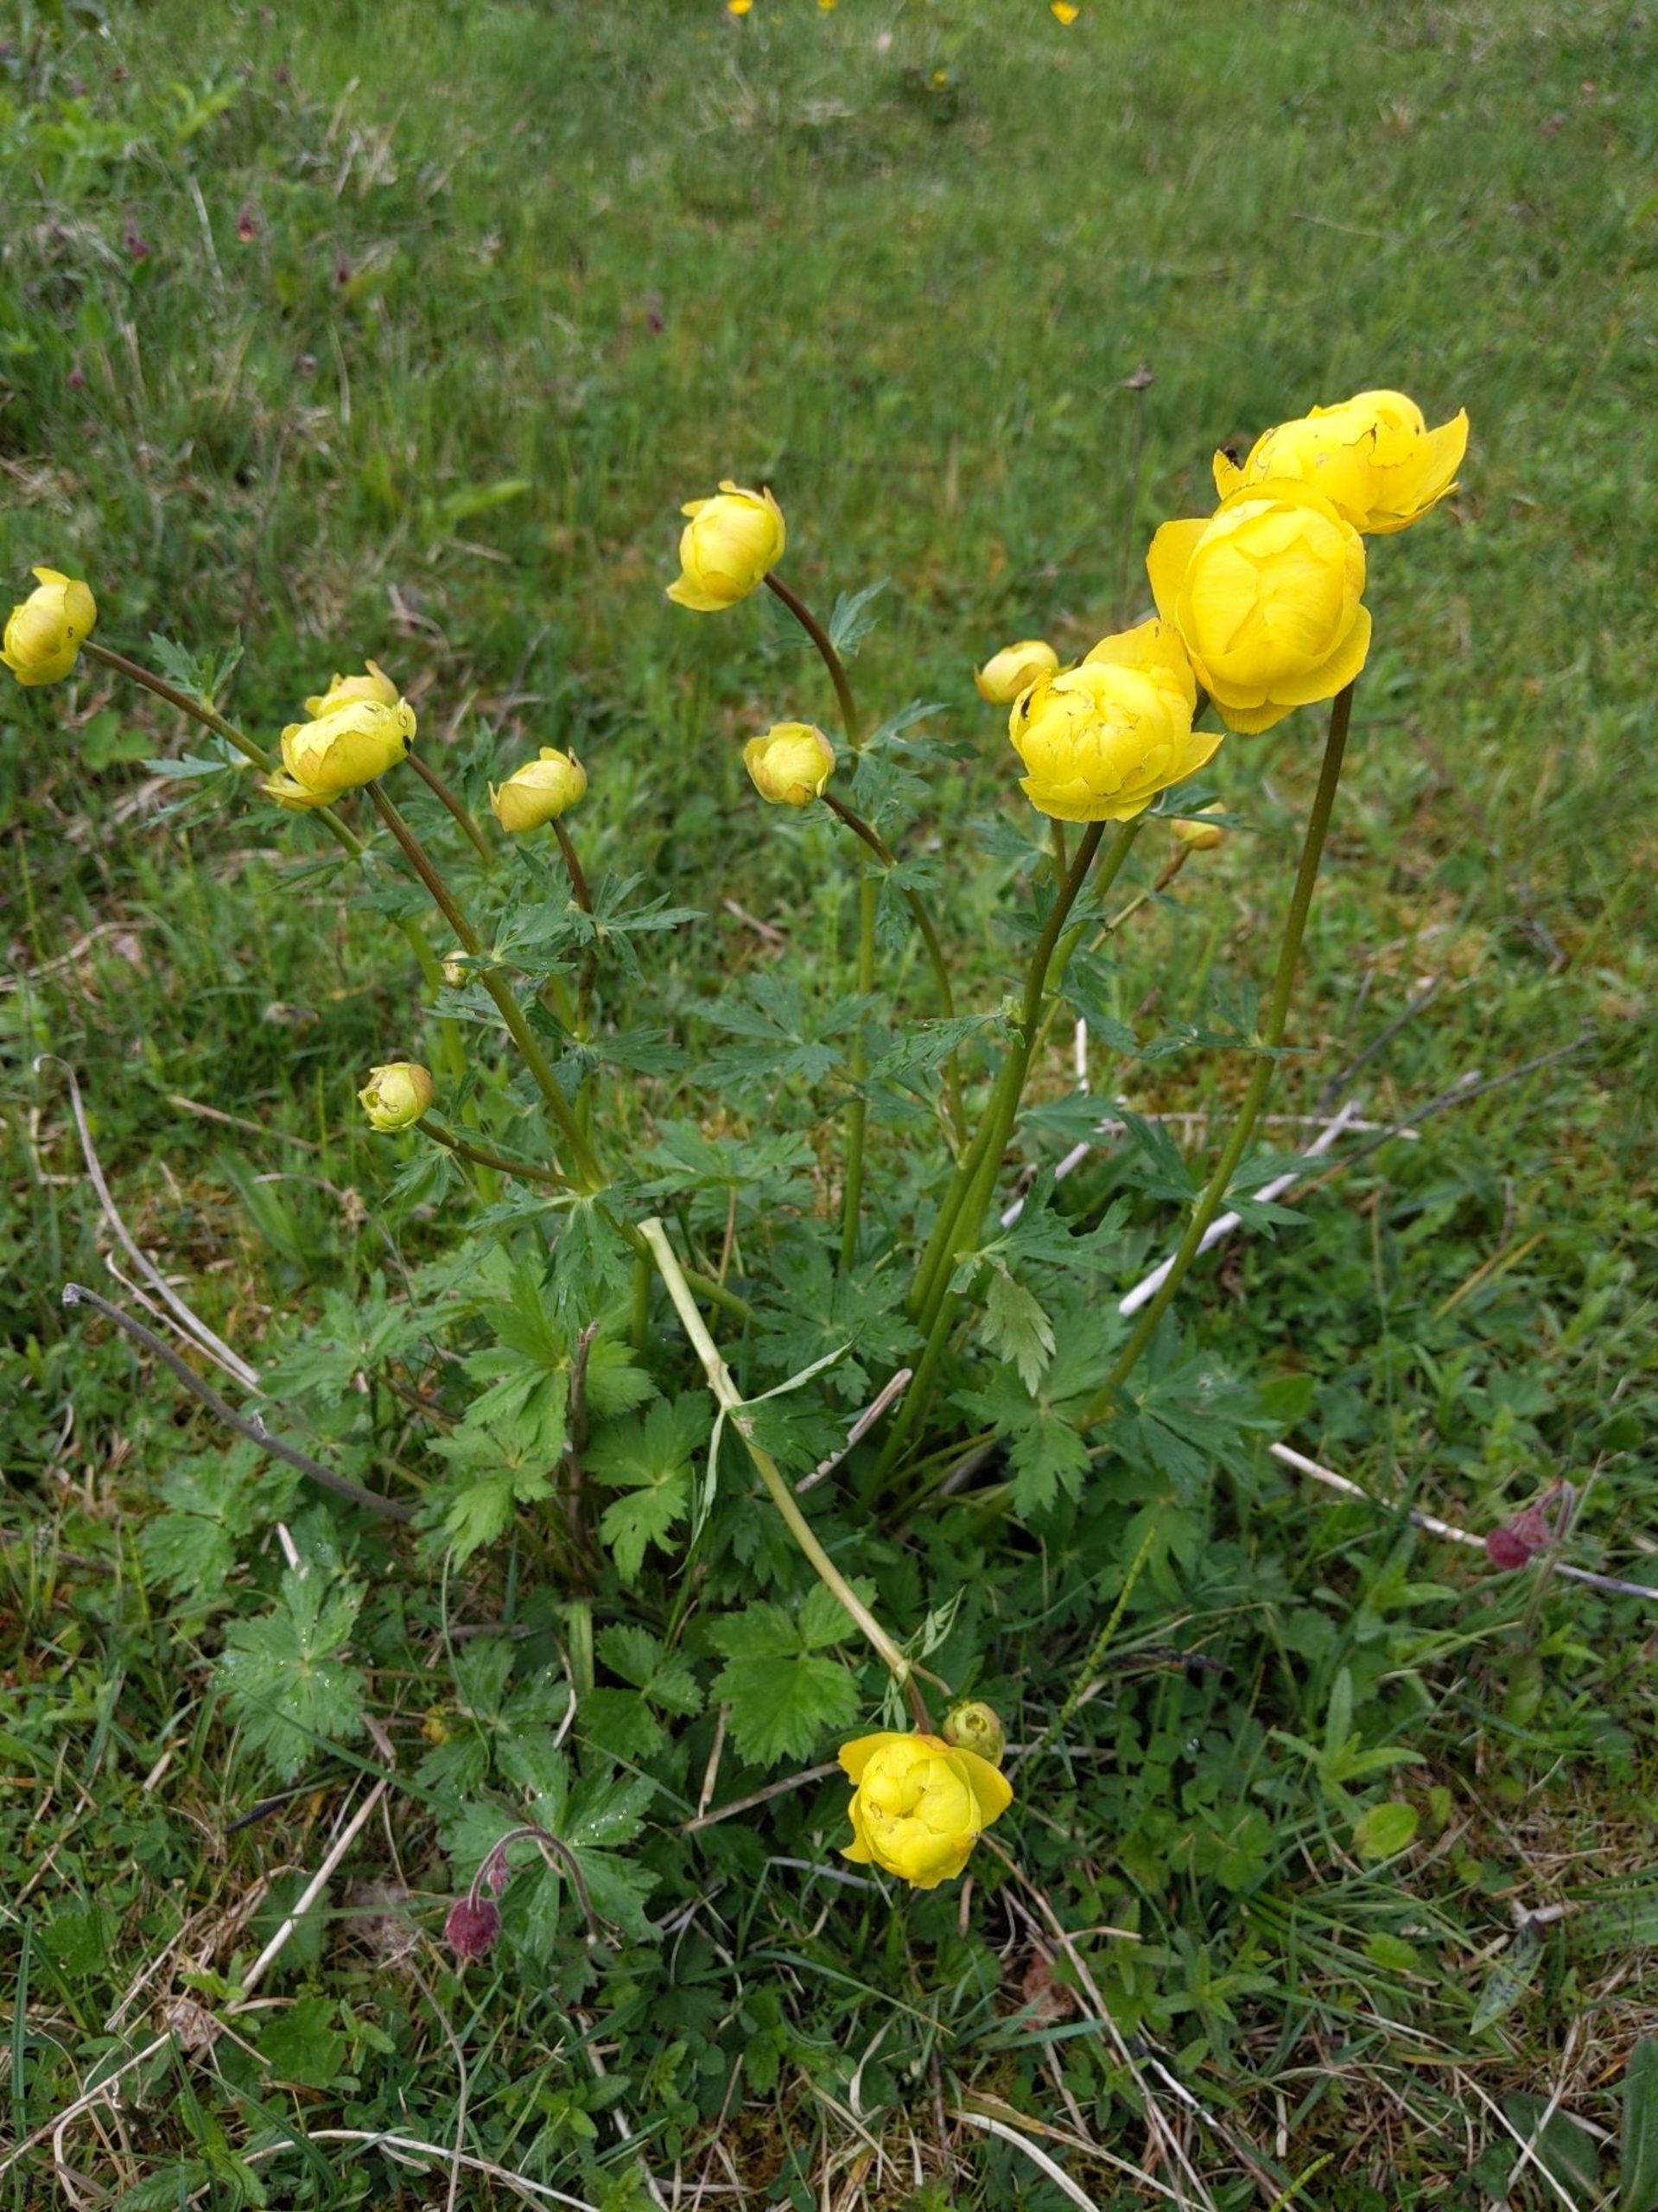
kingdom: Plantae
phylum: Tracheophyta
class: Magnoliopsida
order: Ranunculales
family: Ranunculaceae
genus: Trollius
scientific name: Trollius europaeus
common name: Engblomme
